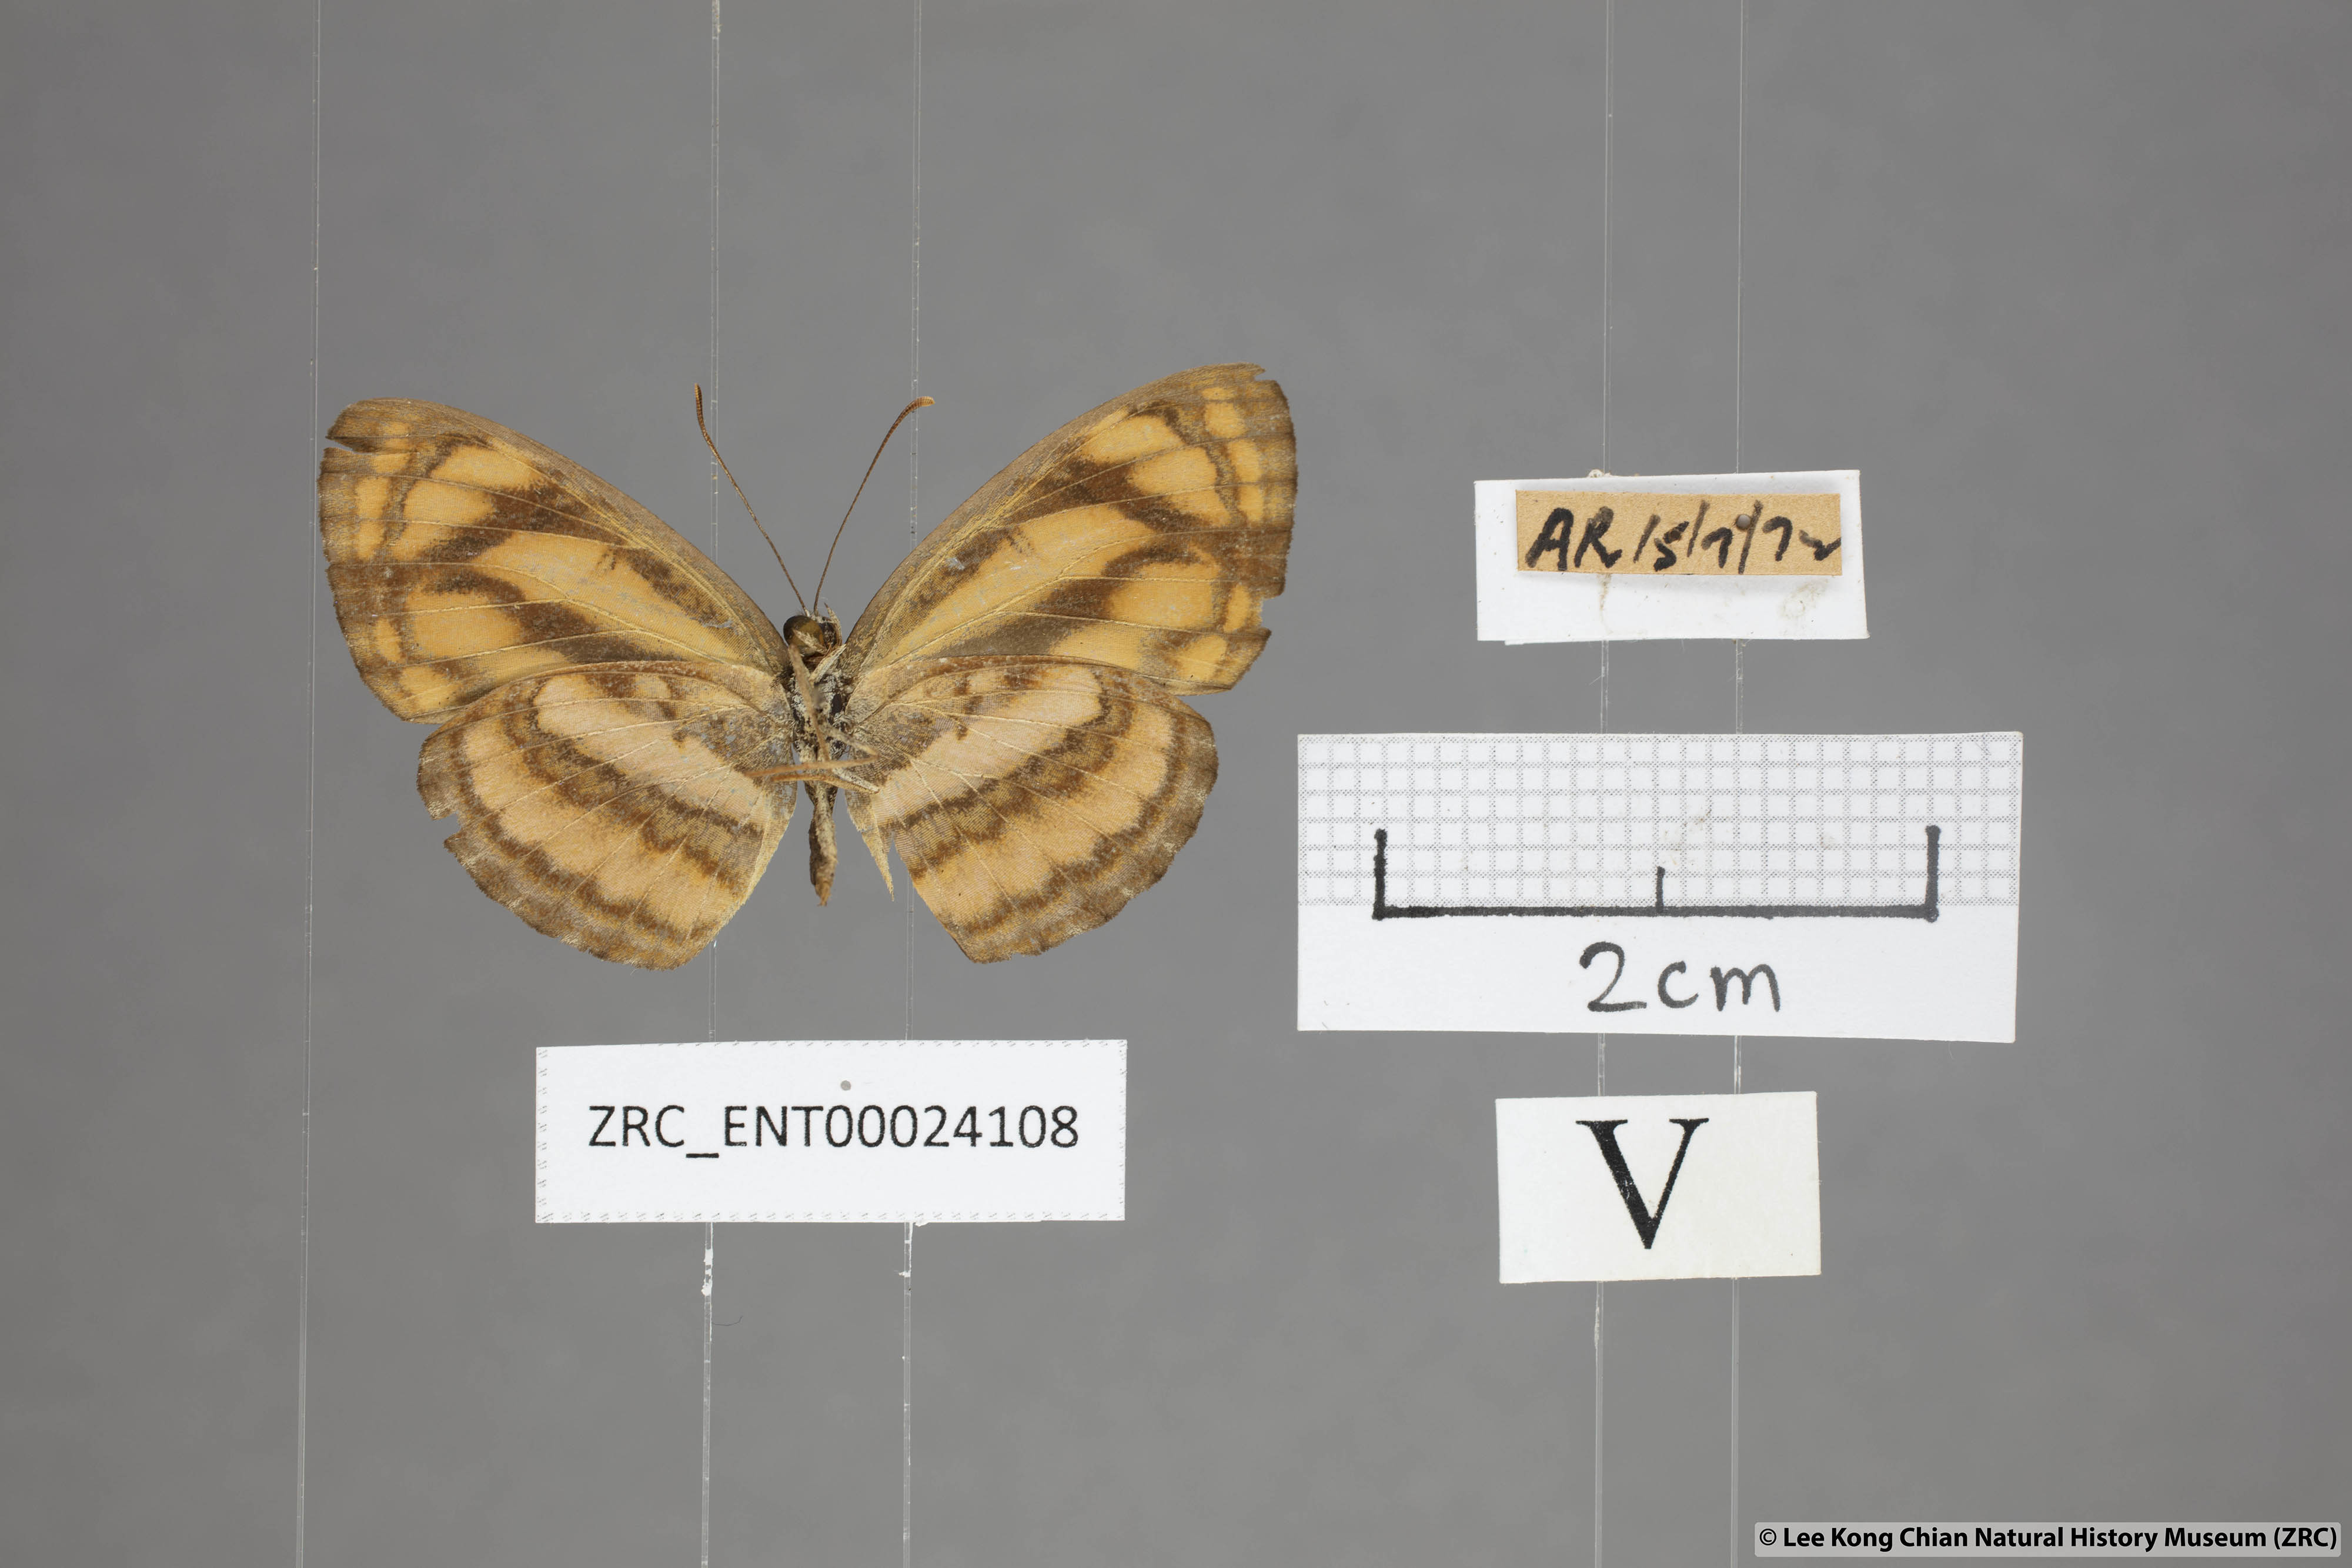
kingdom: Animalia
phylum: Arthropoda
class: Insecta
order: Lepidoptera
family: Nymphalidae
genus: Pantoporia
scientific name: Pantoporia aurelia
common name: Baby lascar
